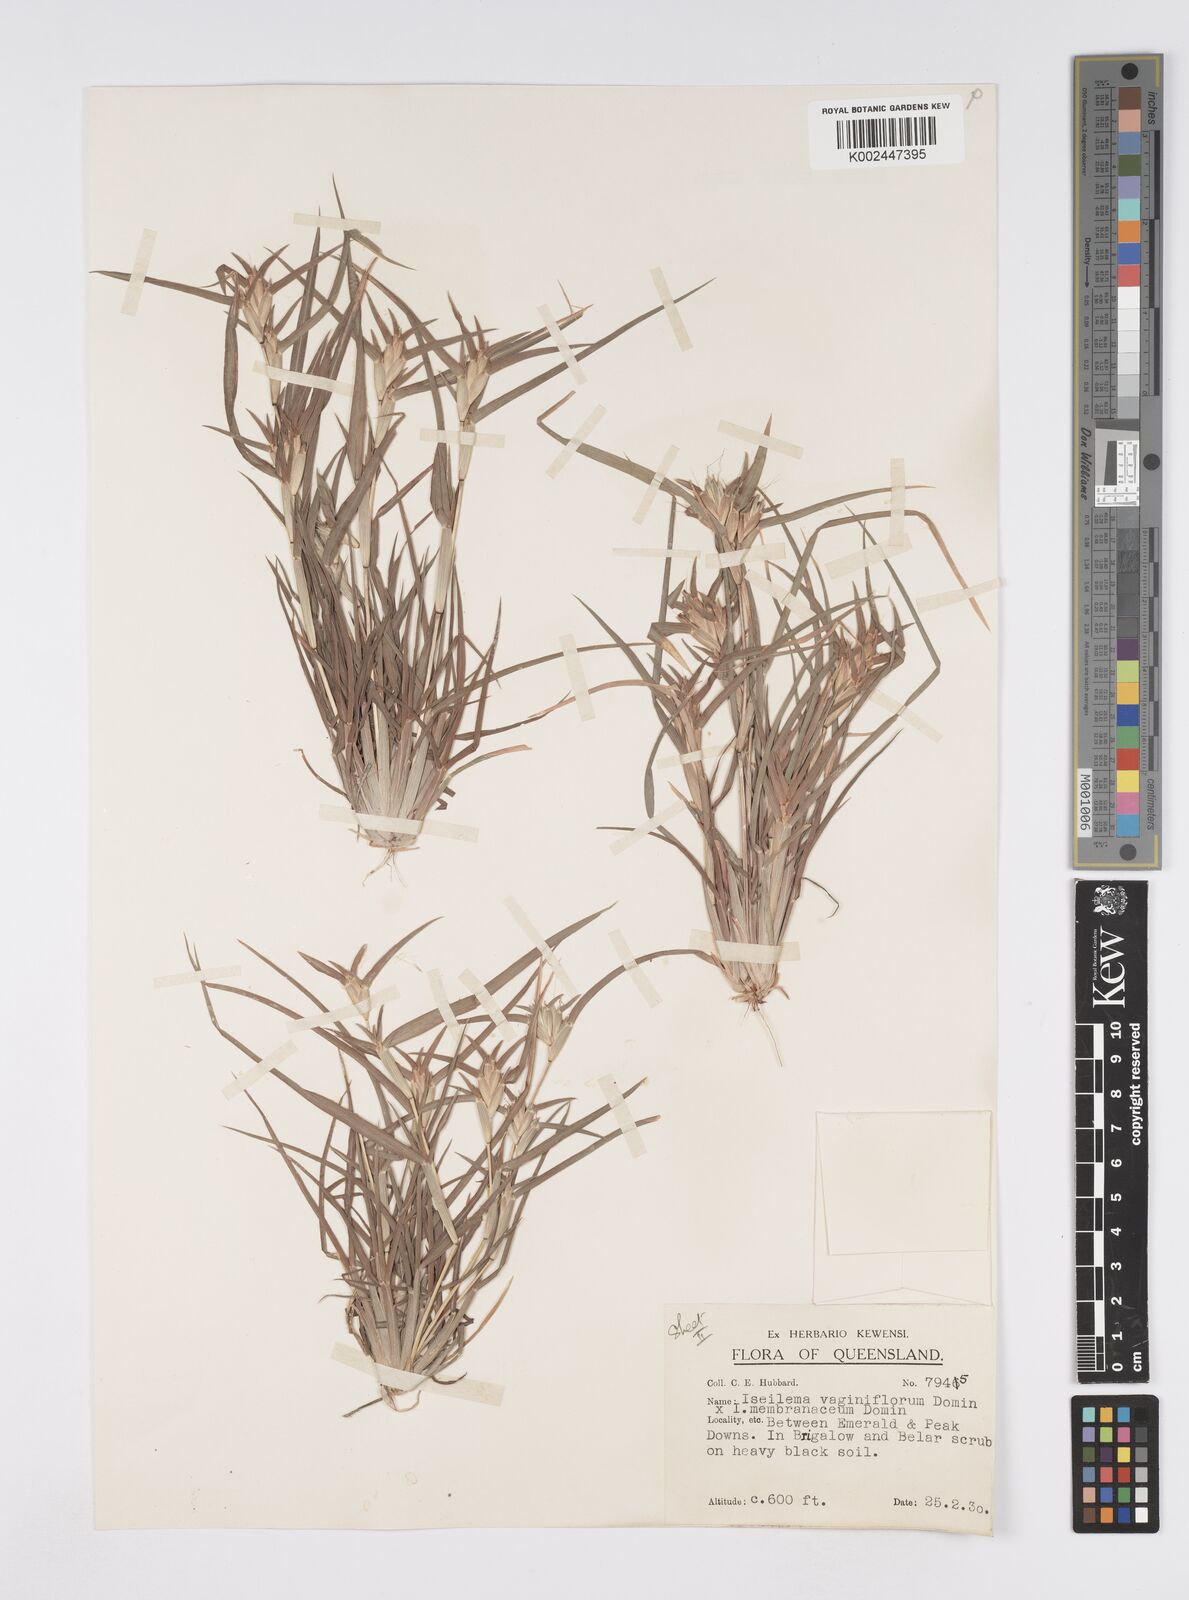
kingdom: Plantae
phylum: Tracheophyta
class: Liliopsida
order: Poales
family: Poaceae
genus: Iseilema
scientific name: Iseilema vaginiflorum
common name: Red flinders grass
